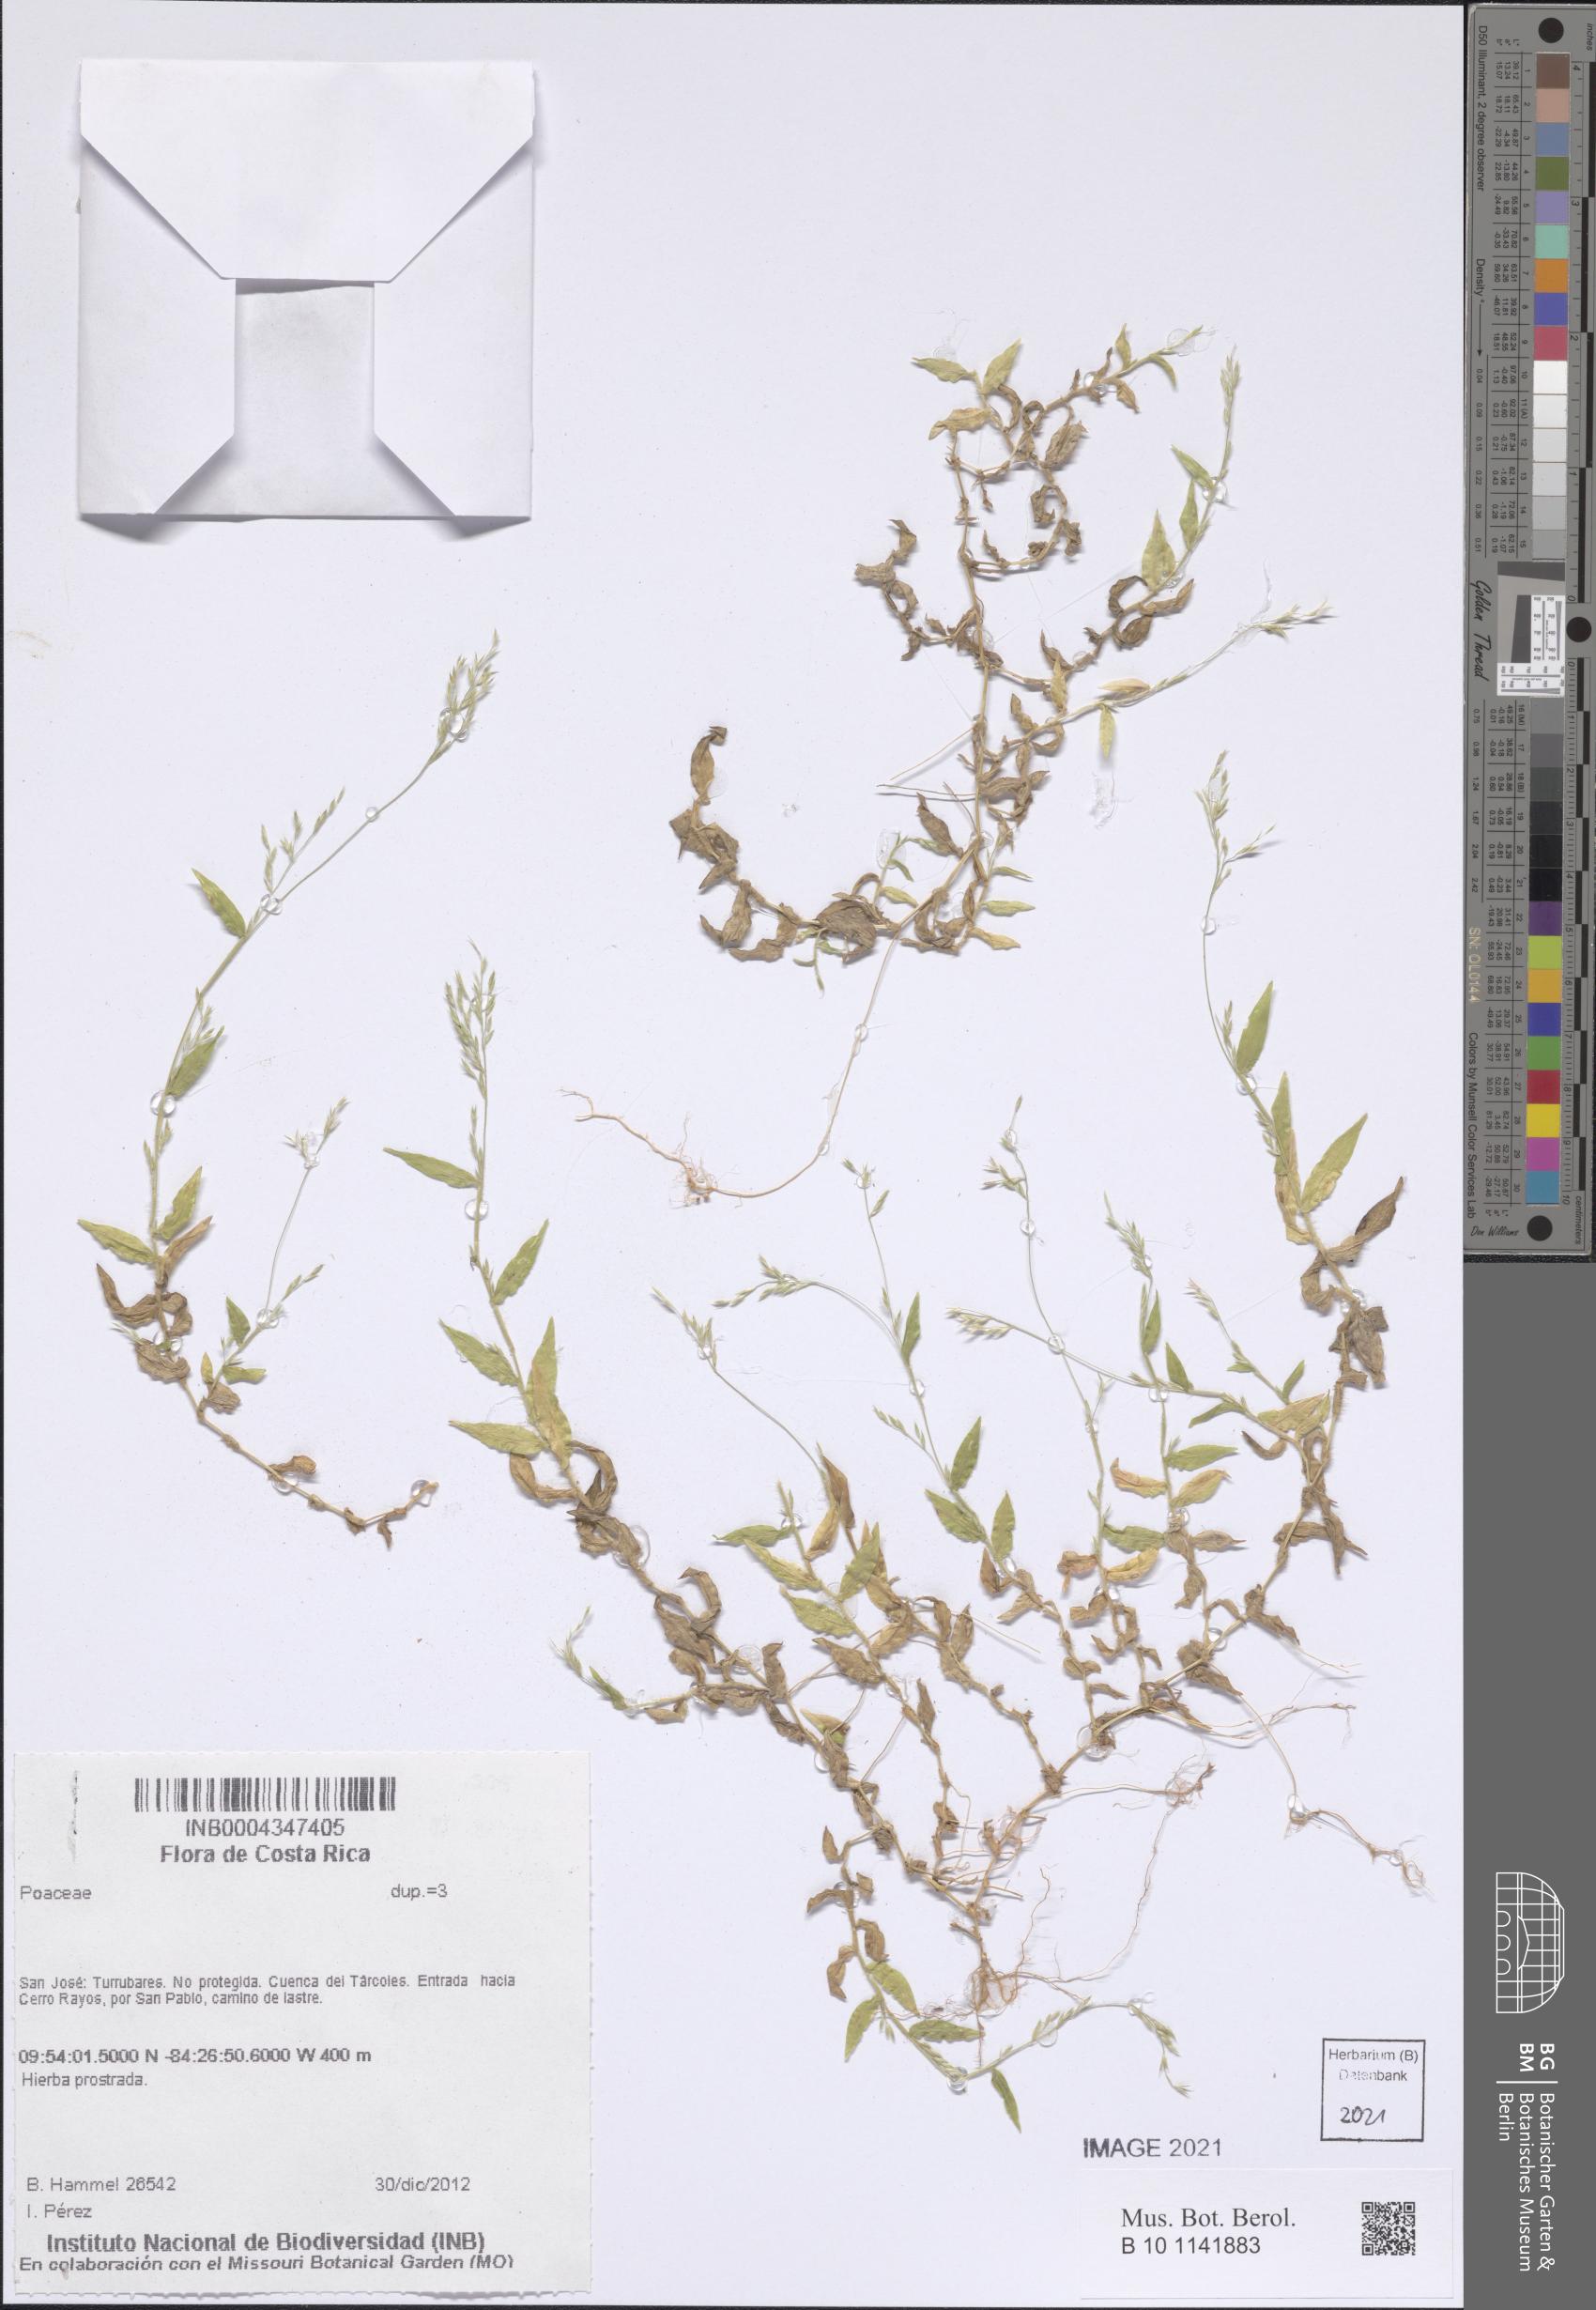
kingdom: Plantae
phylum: Tracheophyta
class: Liliopsida
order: Poales
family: Poaceae
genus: Ichnanthus
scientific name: Ichnanthus tenuis
